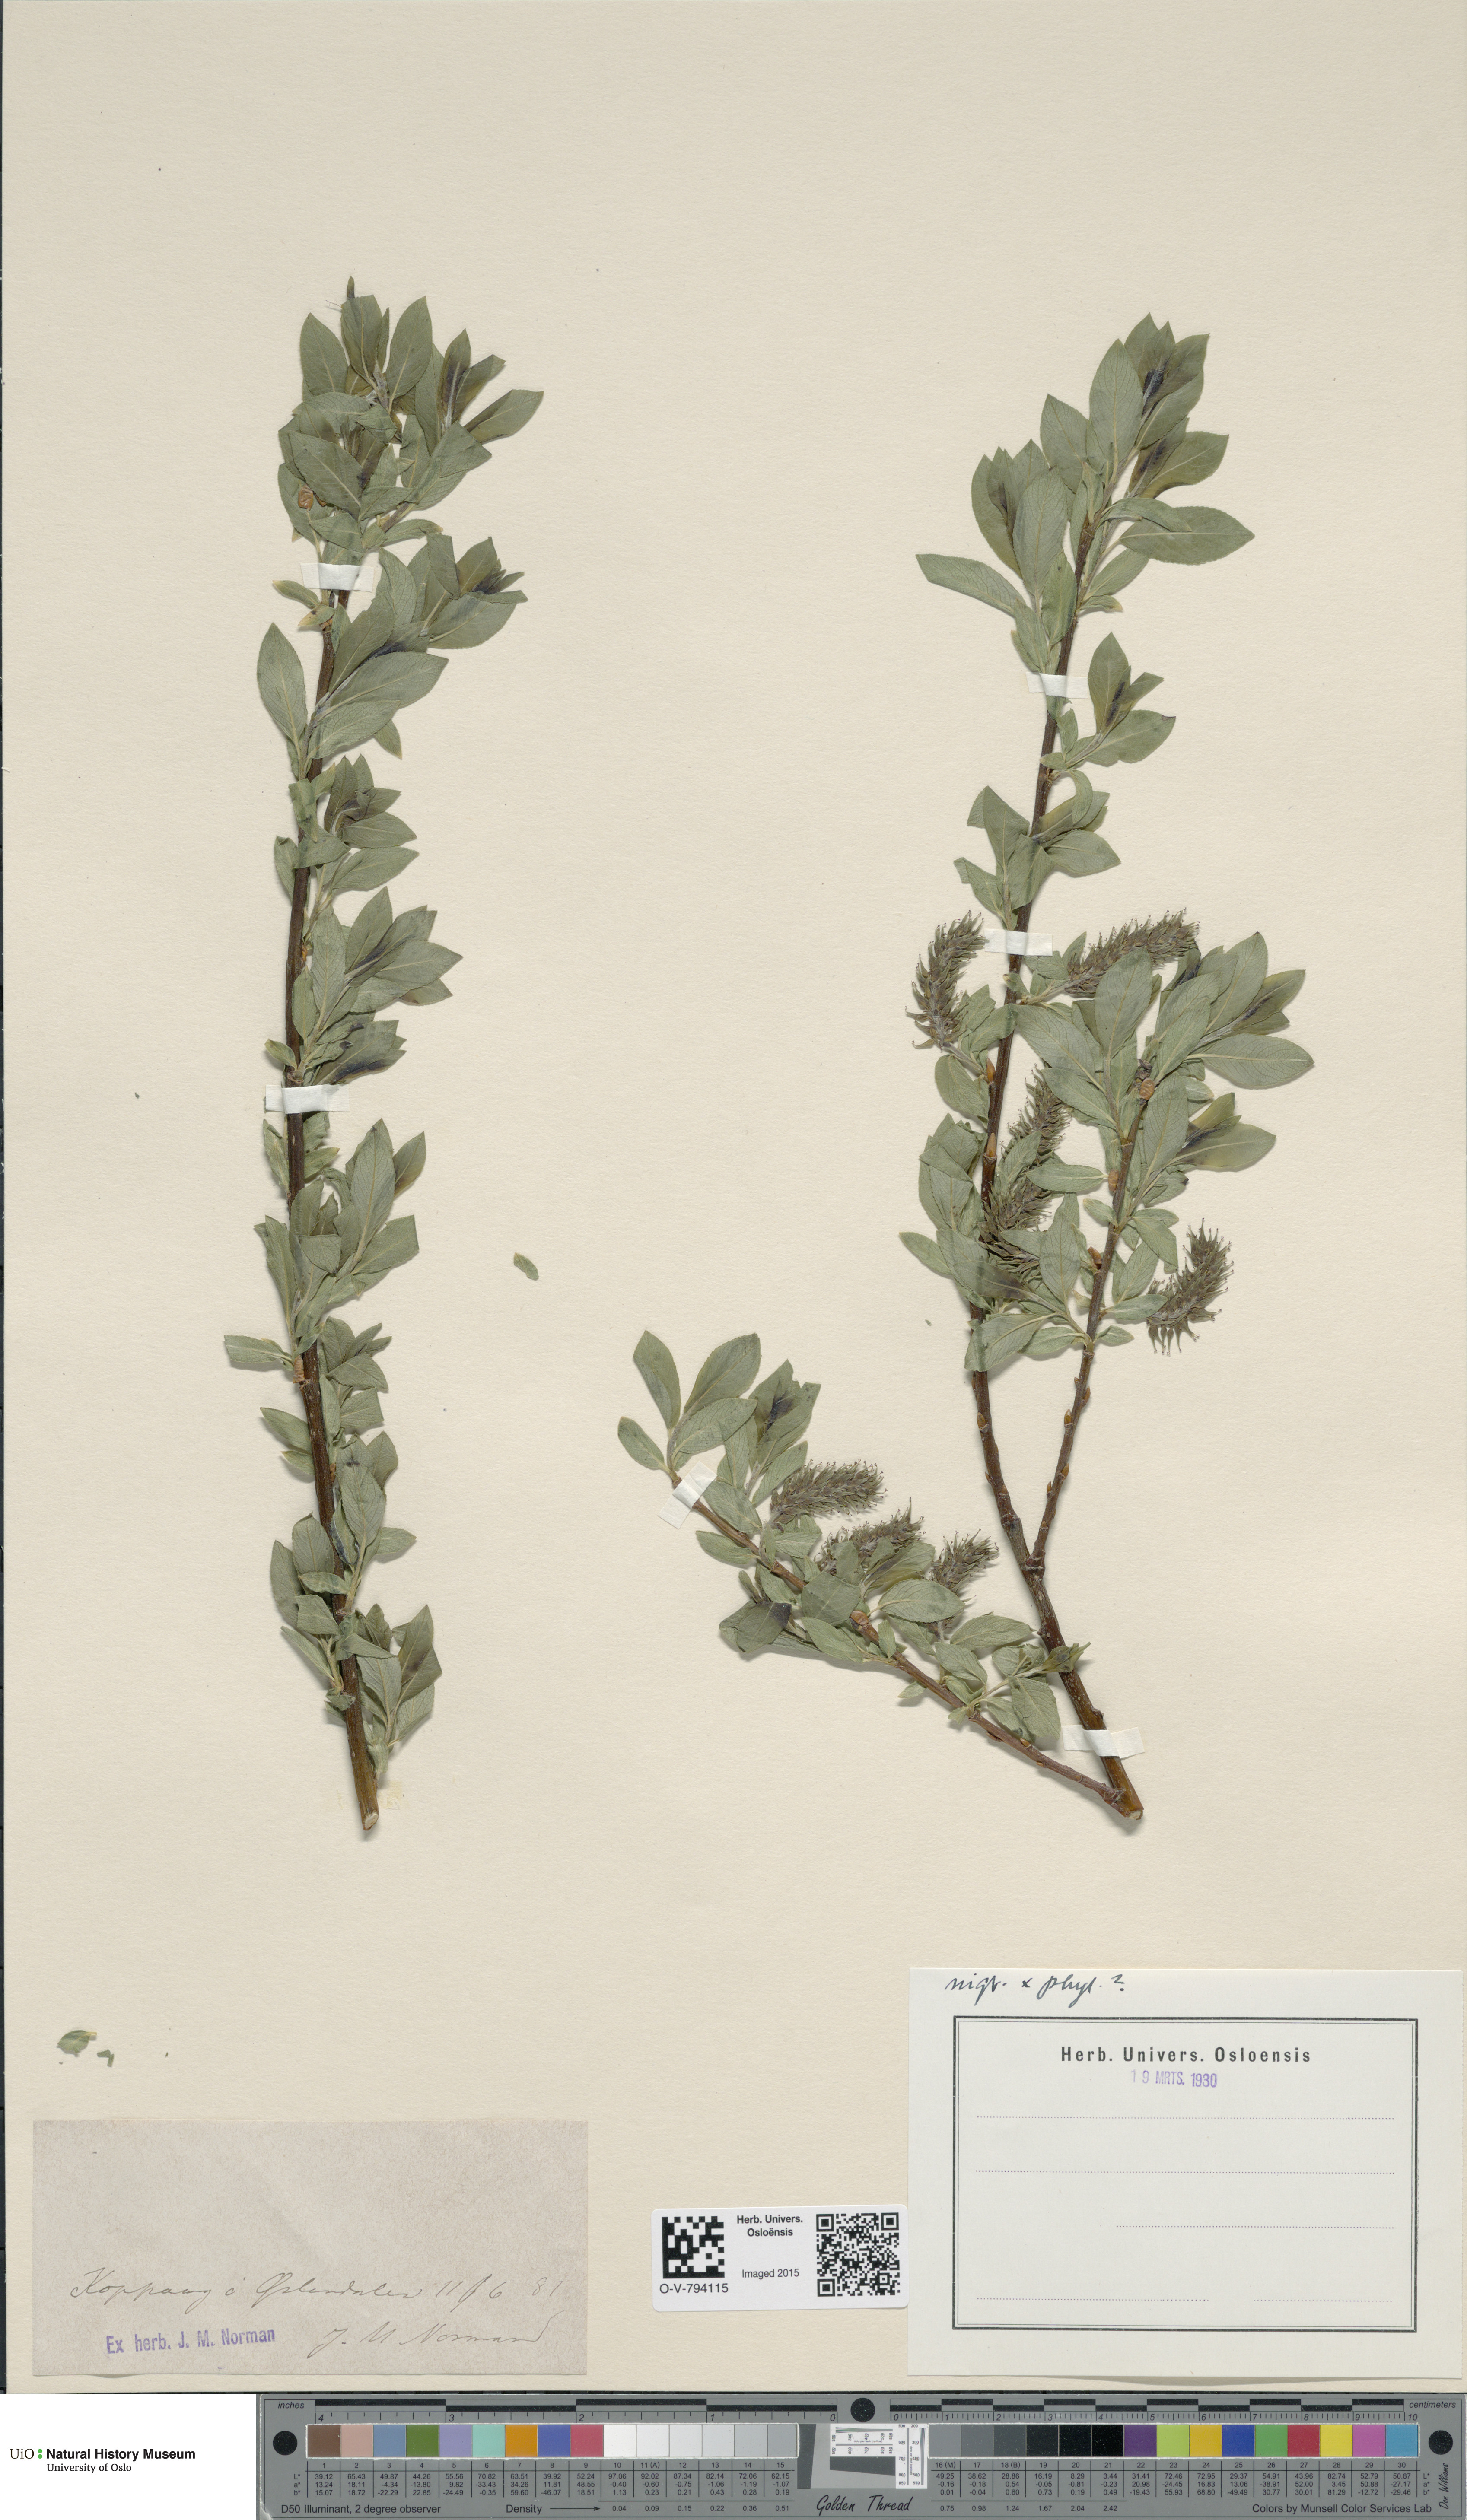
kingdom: Plantae
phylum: Tracheophyta
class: Magnoliopsida
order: Malpighiales
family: Salicaceae
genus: Salix
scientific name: Salix
